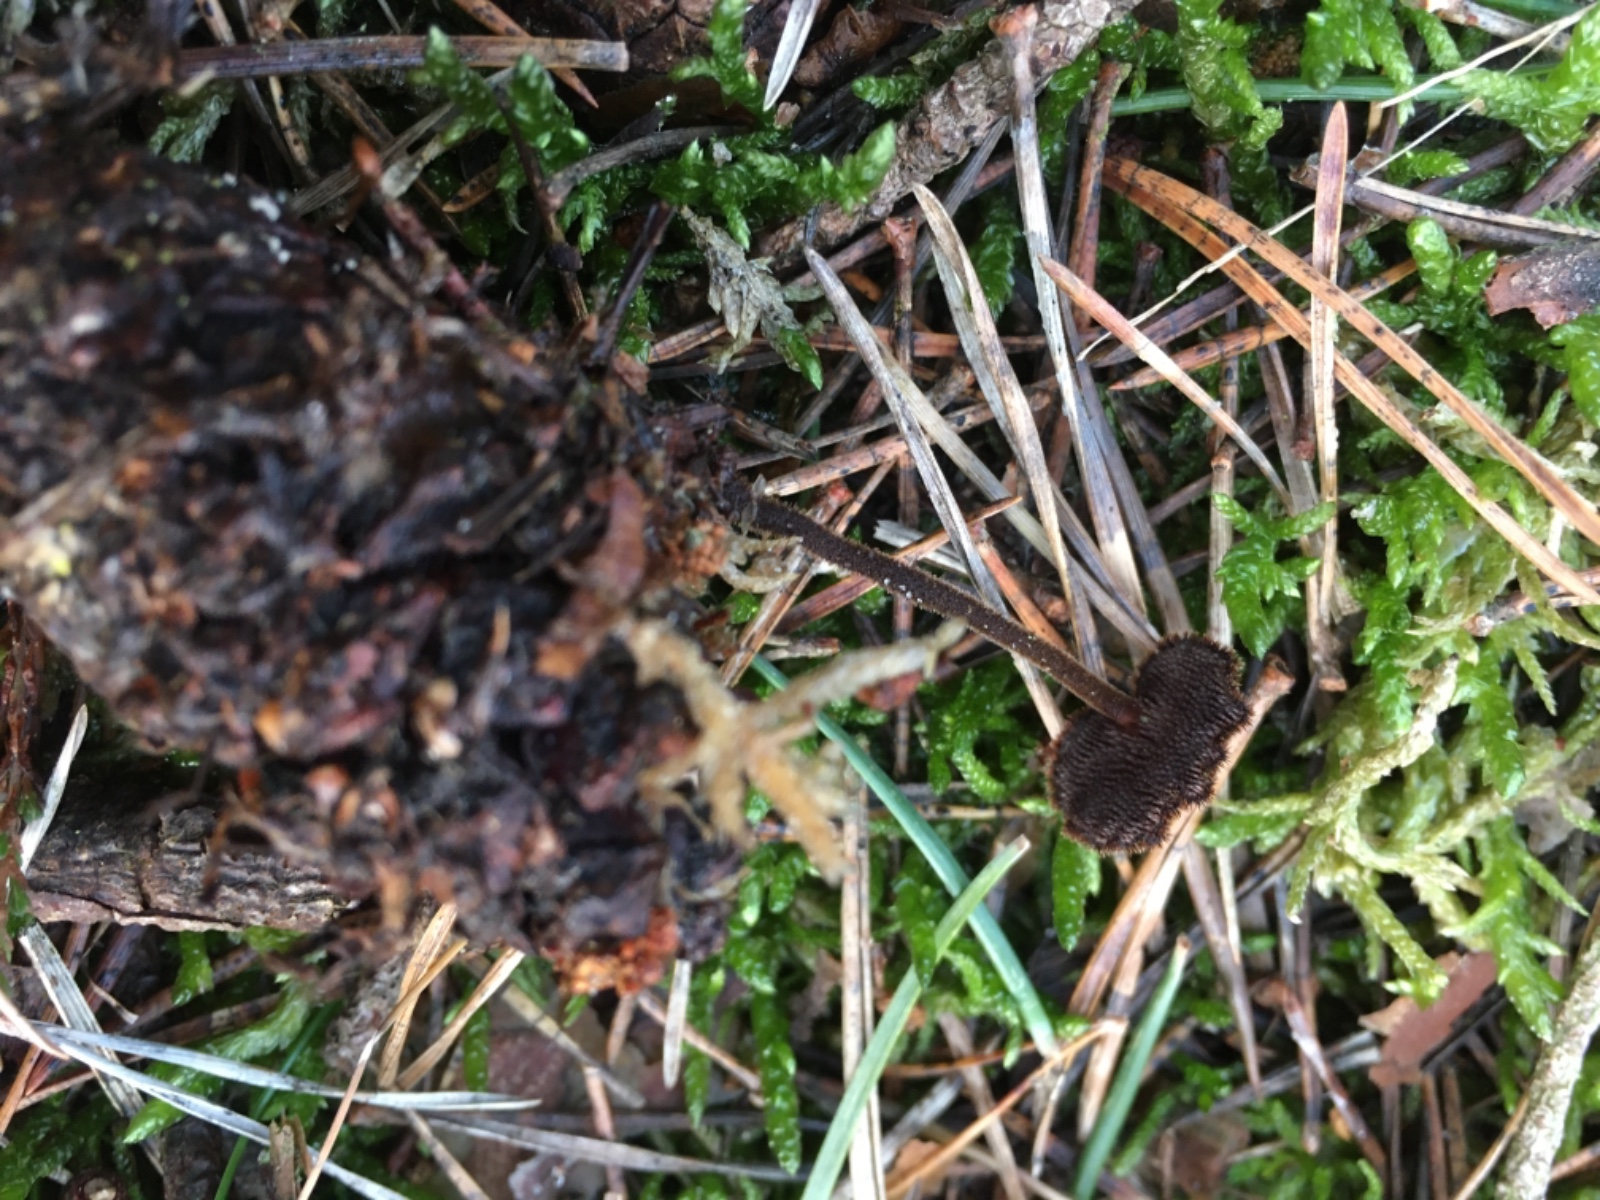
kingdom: Fungi
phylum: Basidiomycota
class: Agaricomycetes
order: Russulales
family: Auriscalpiaceae
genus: Auriscalpium
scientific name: Auriscalpium vulgare
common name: koglepigsvamp
